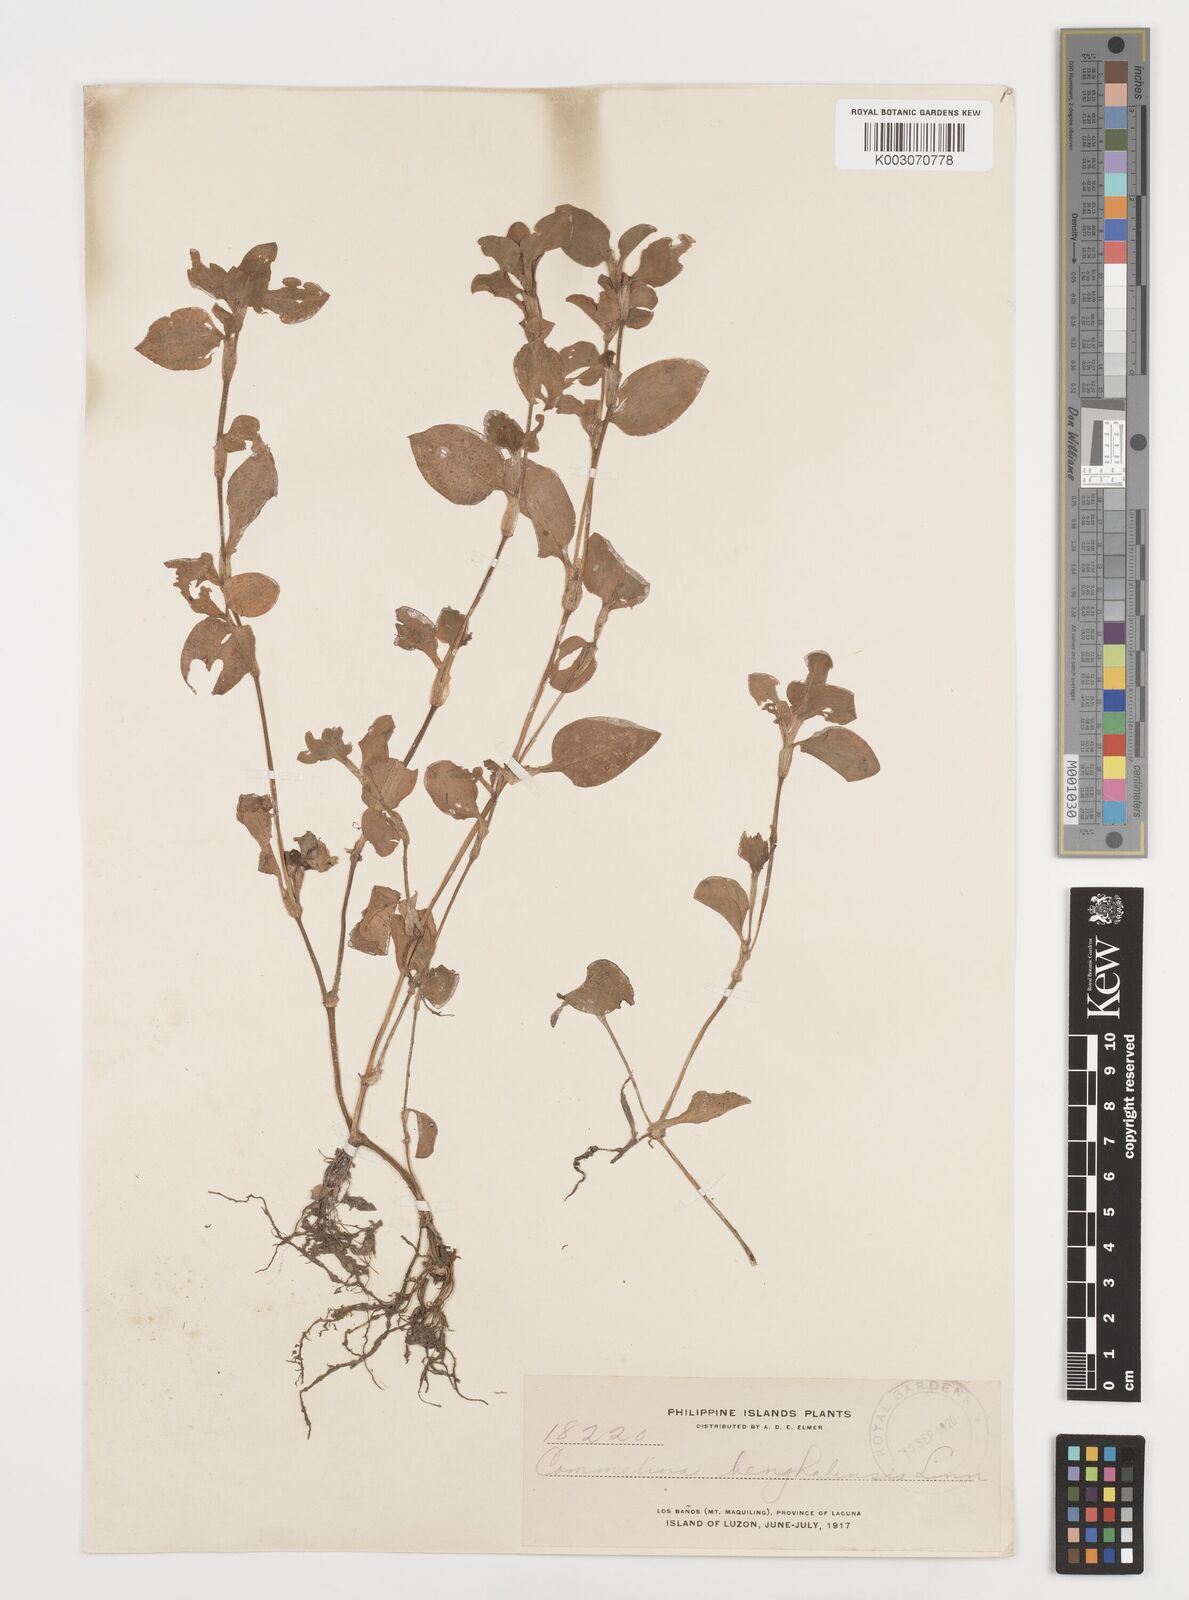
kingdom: Plantae
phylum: Tracheophyta
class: Liliopsida
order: Commelinales
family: Commelinaceae
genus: Commelina
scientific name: Commelina benghalensis
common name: Jio
